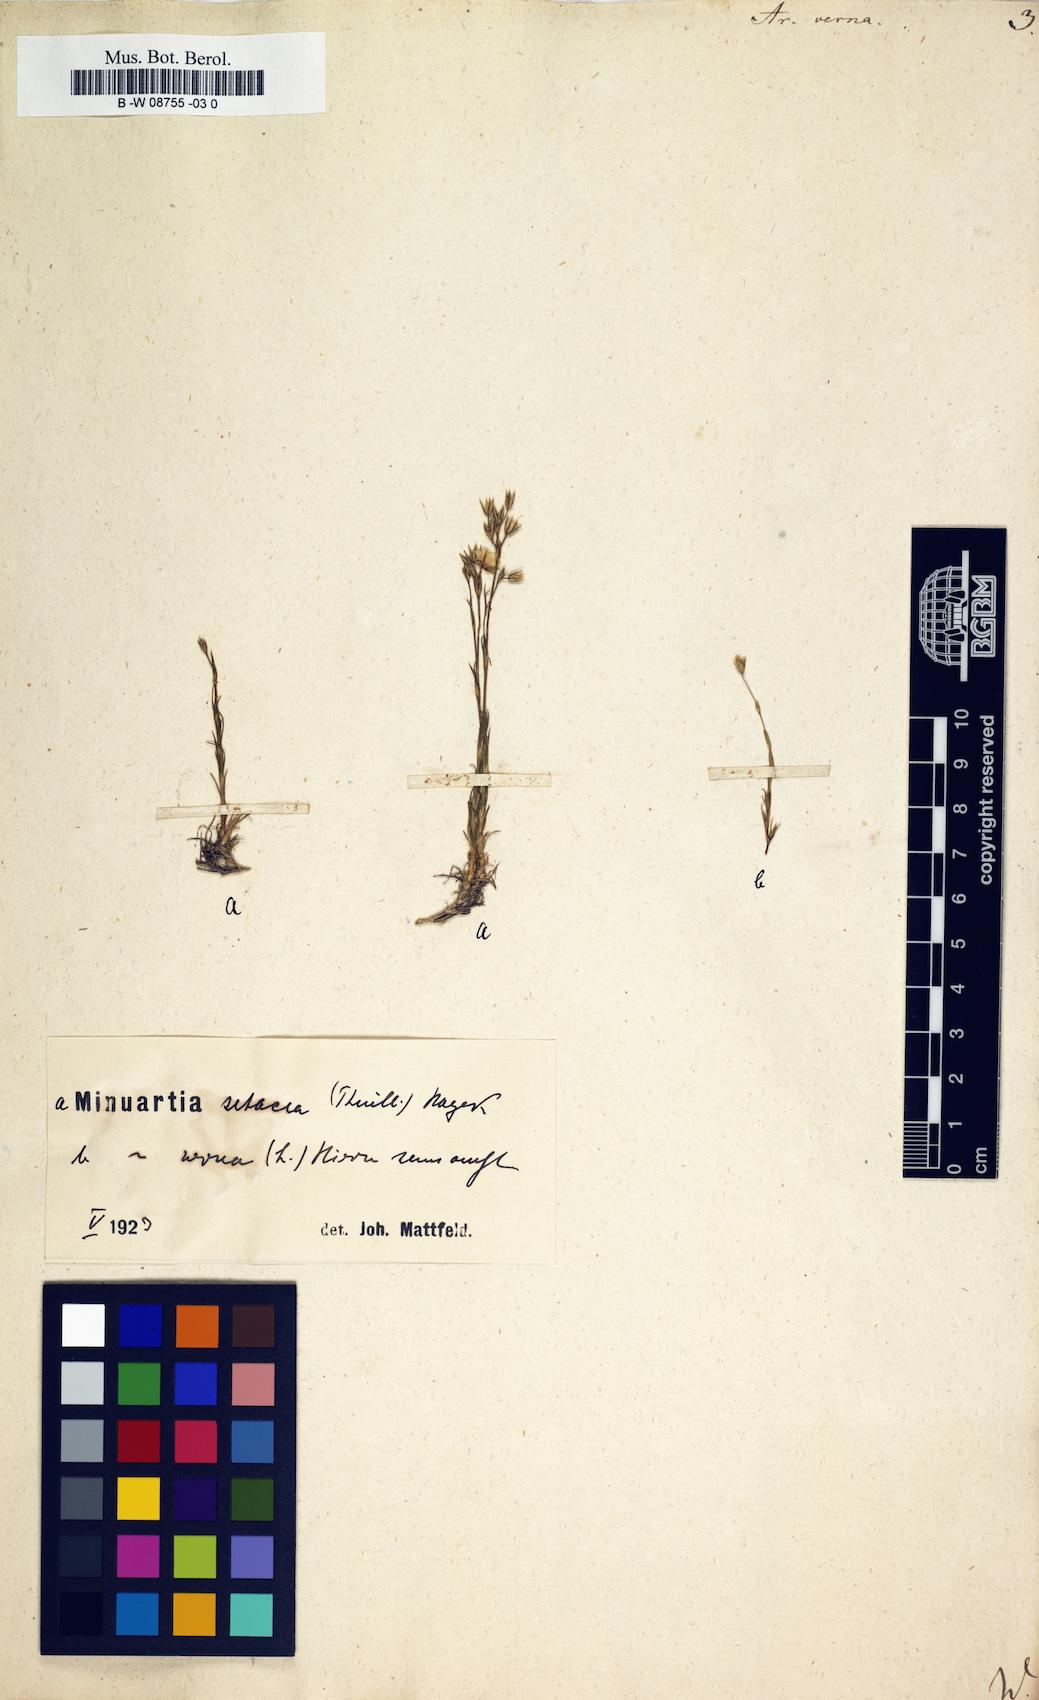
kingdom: Plantae
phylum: Tracheophyta
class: Magnoliopsida
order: Caryophyllales
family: Caryophyllaceae
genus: Sabulina
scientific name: Sabulina verna
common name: Spring sandwort
